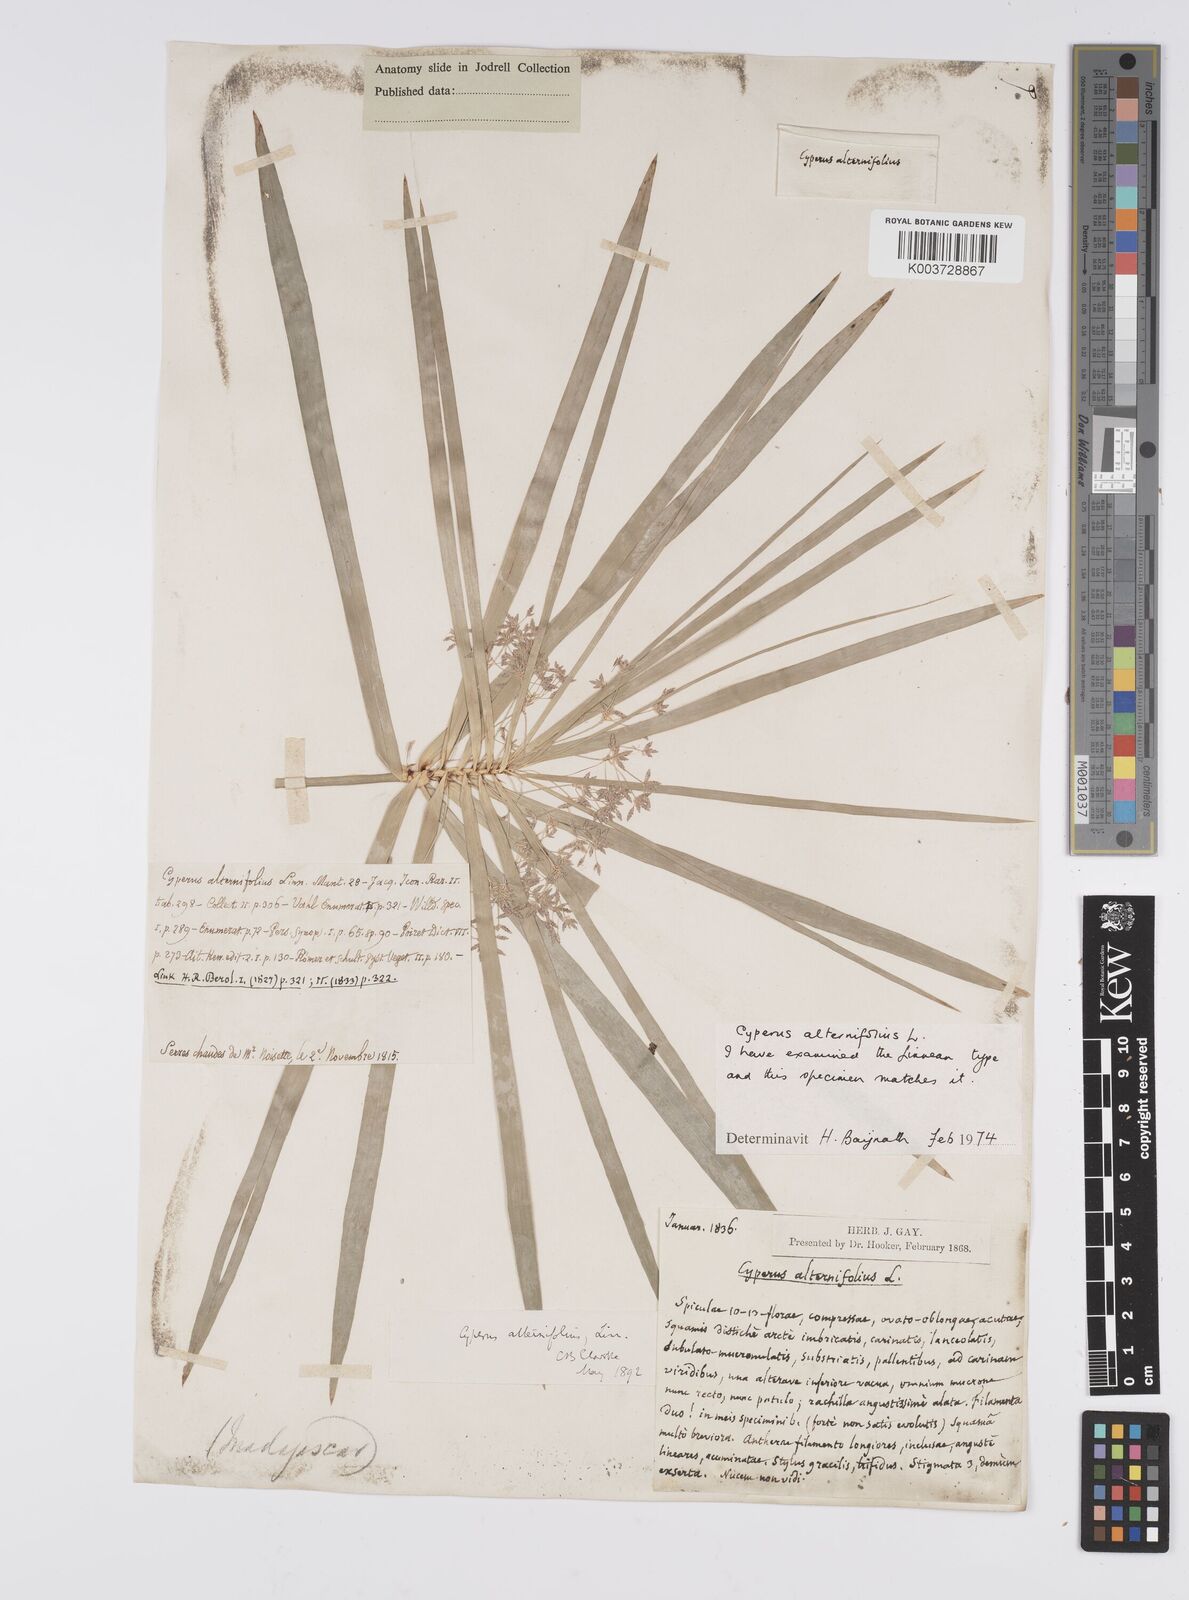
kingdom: Plantae
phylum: Tracheophyta
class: Liliopsida
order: Poales
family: Cyperaceae
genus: Cyperus
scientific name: Cyperus alternifolius
